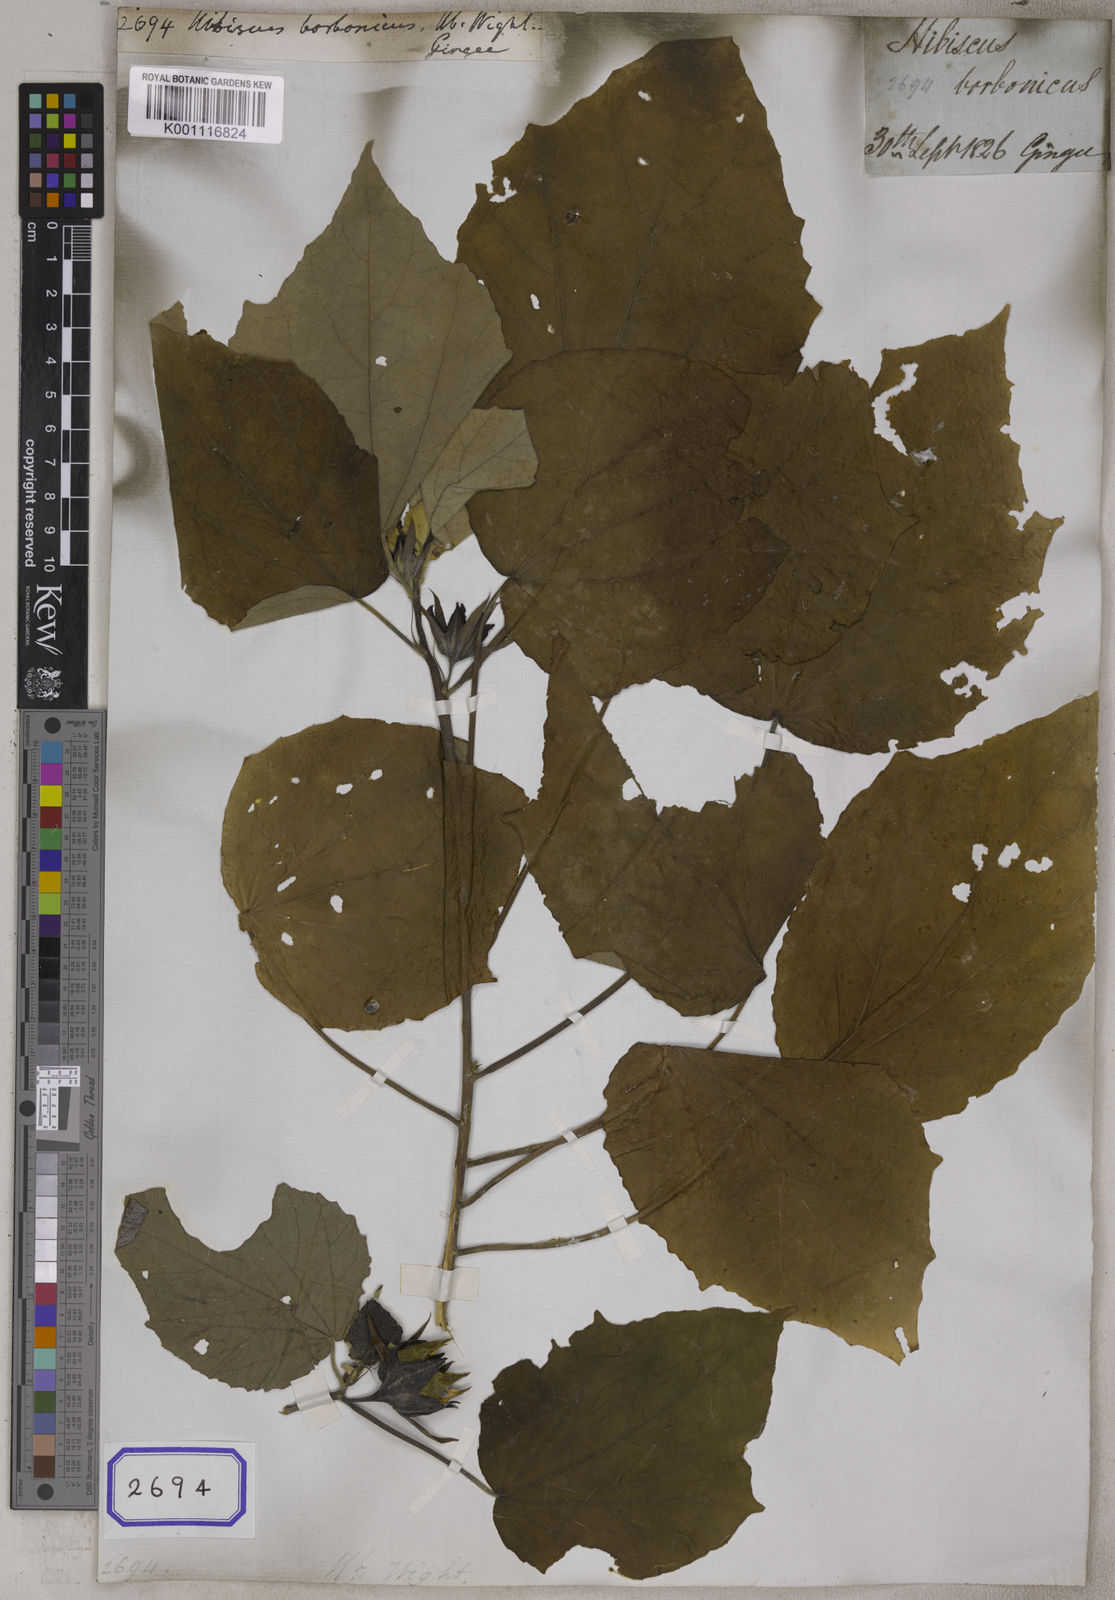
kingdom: Plantae
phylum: Tracheophyta
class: Magnoliopsida
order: Malvales
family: Malvaceae
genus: Hibiscus
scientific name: Hibiscus
